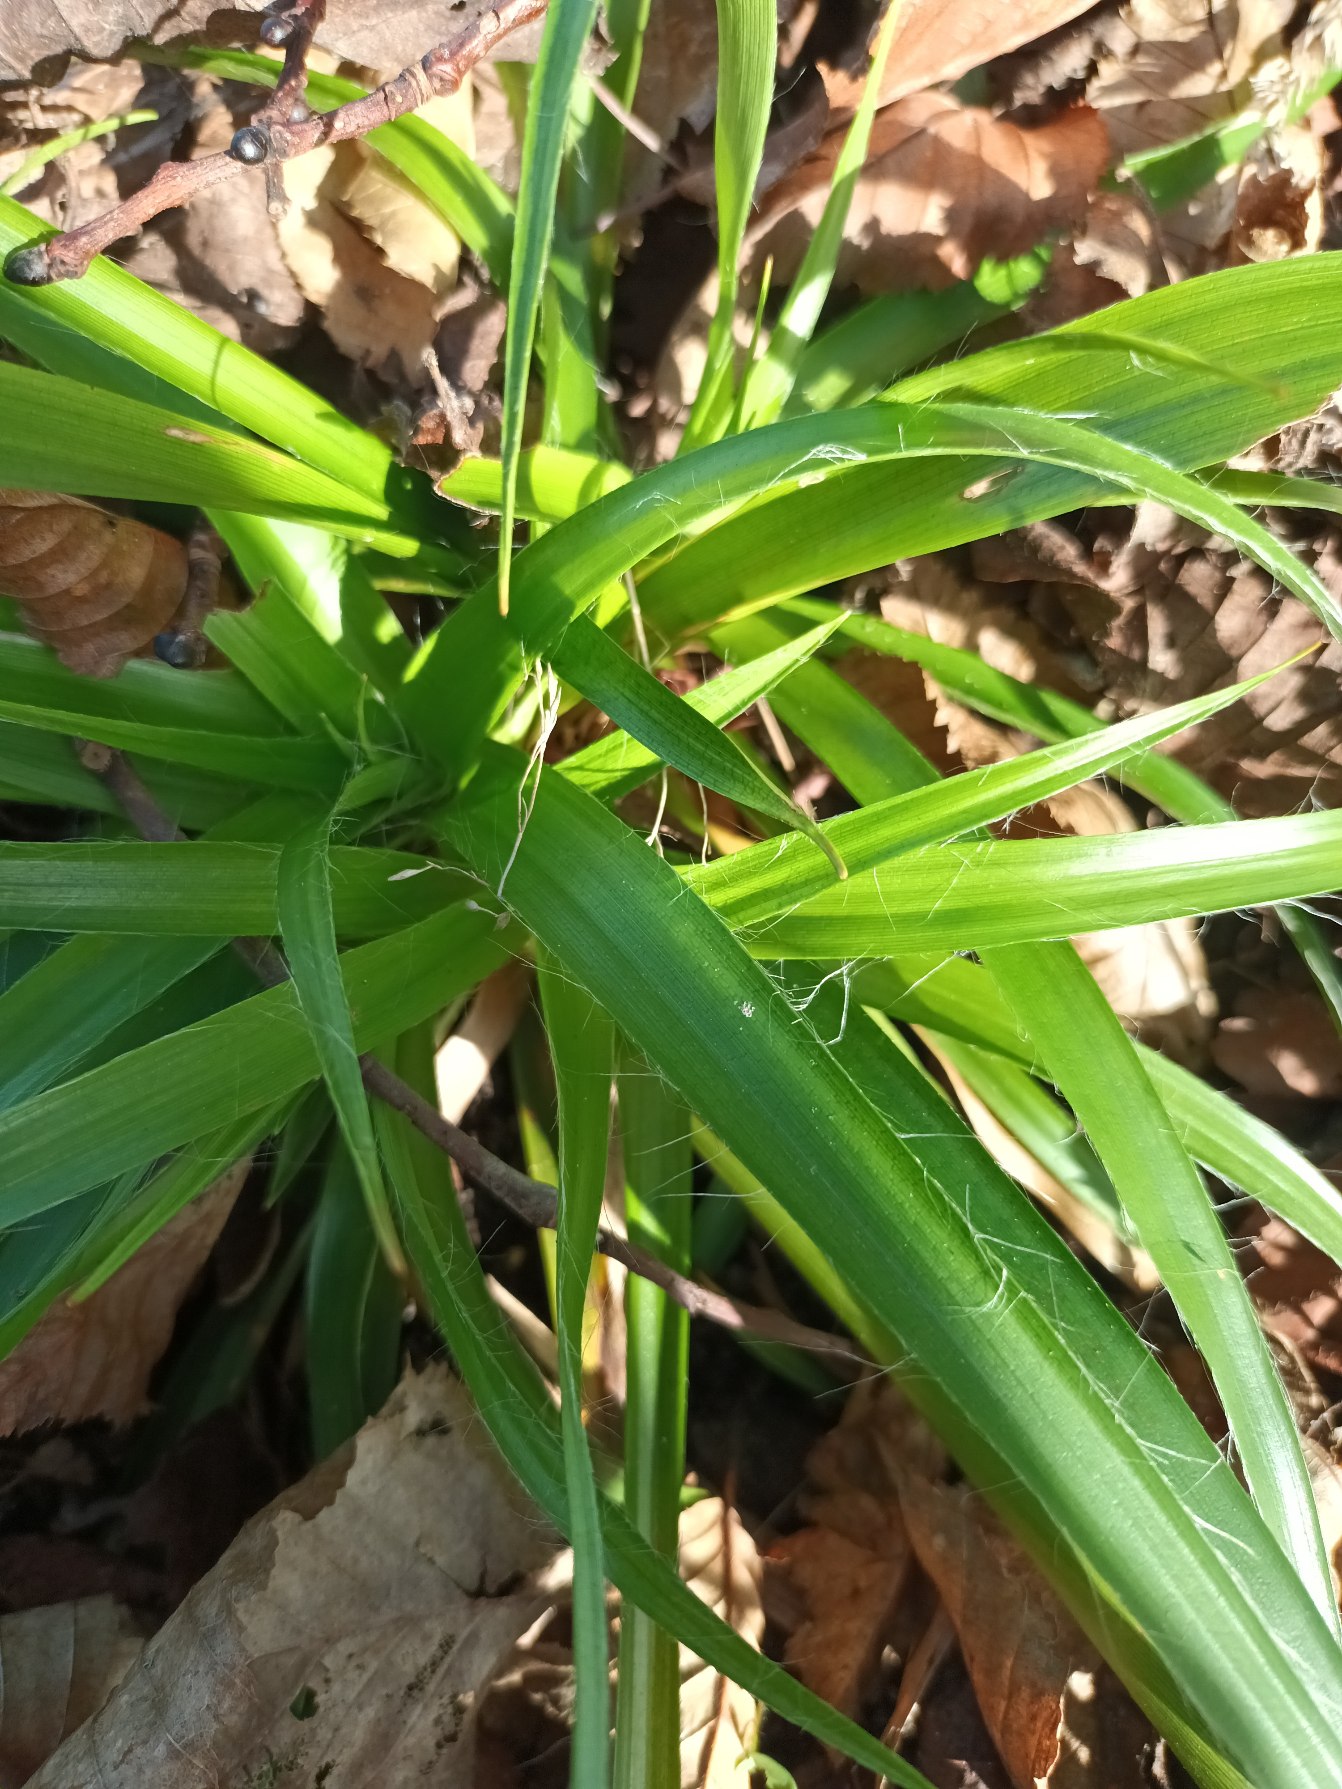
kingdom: Plantae
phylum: Tracheophyta
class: Liliopsida
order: Poales
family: Juncaceae
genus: Luzula
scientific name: Luzula sylvatica
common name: Stor frytle
